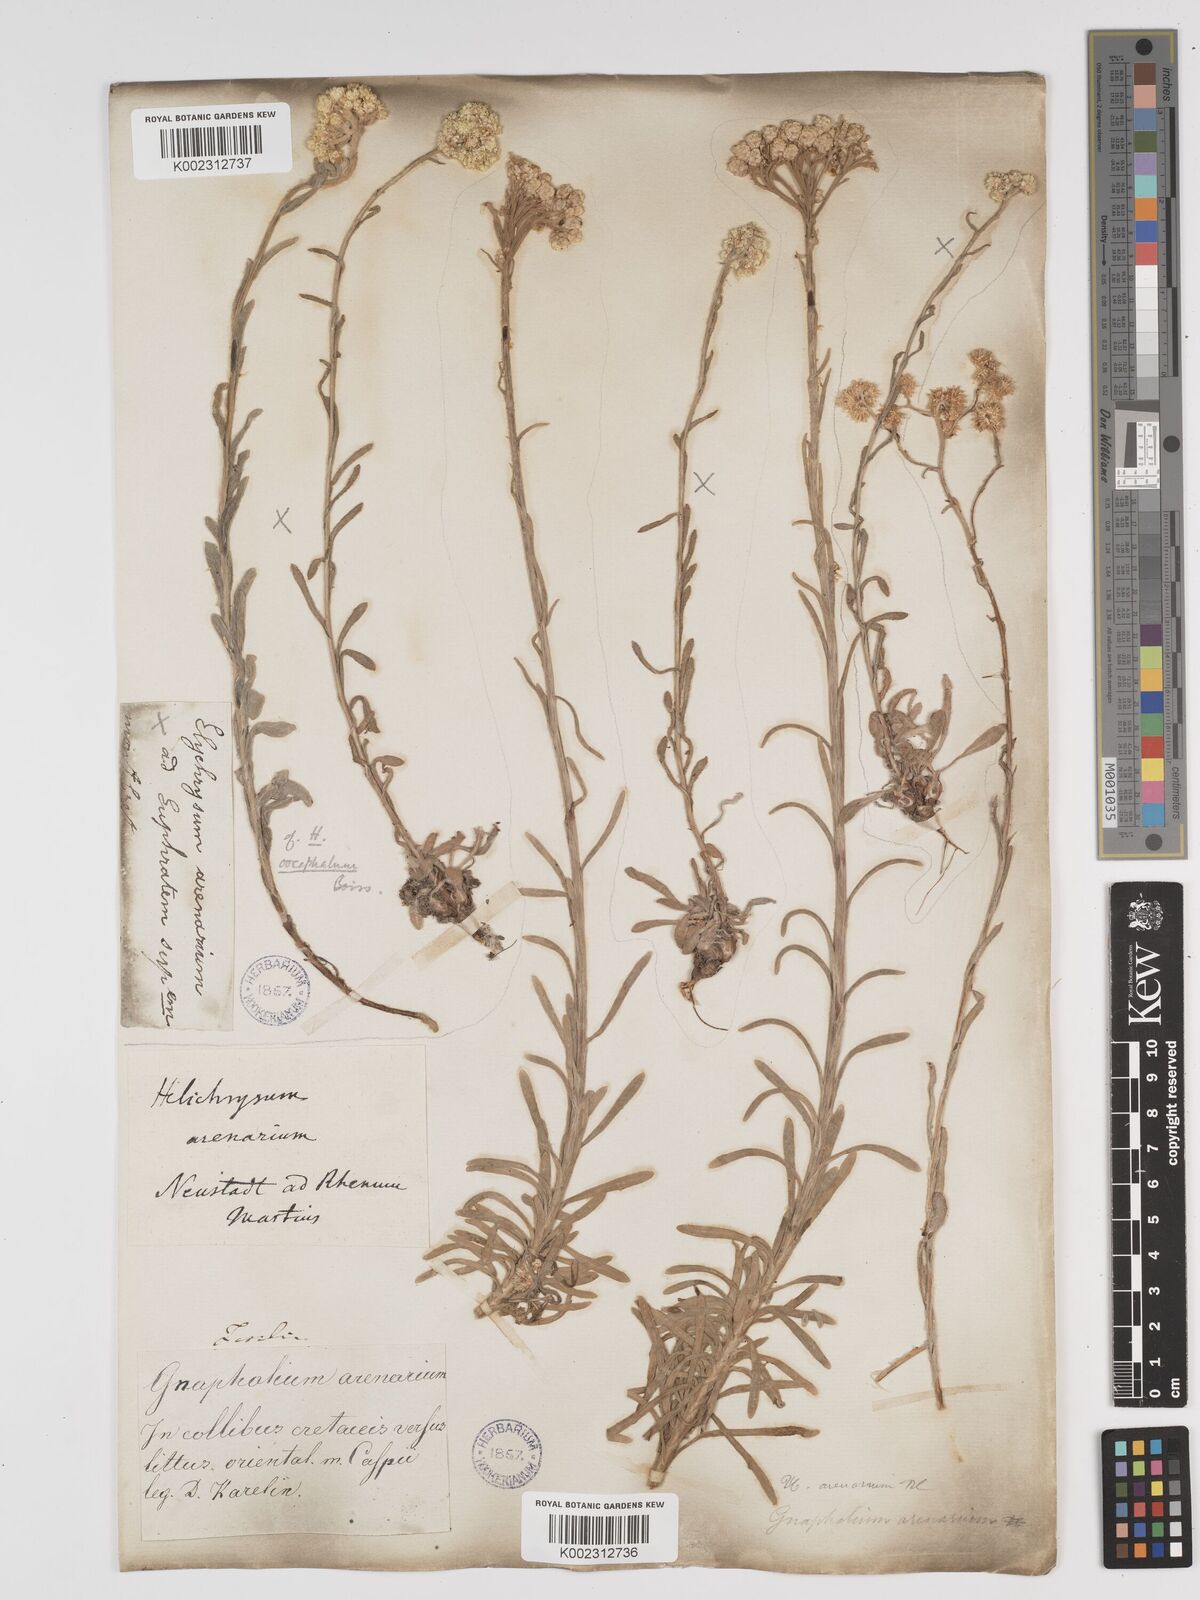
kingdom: Plantae
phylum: Tracheophyta
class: Magnoliopsida
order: Asterales
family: Asteraceae
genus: Helichrysum
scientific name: Helichrysum oocephalum
